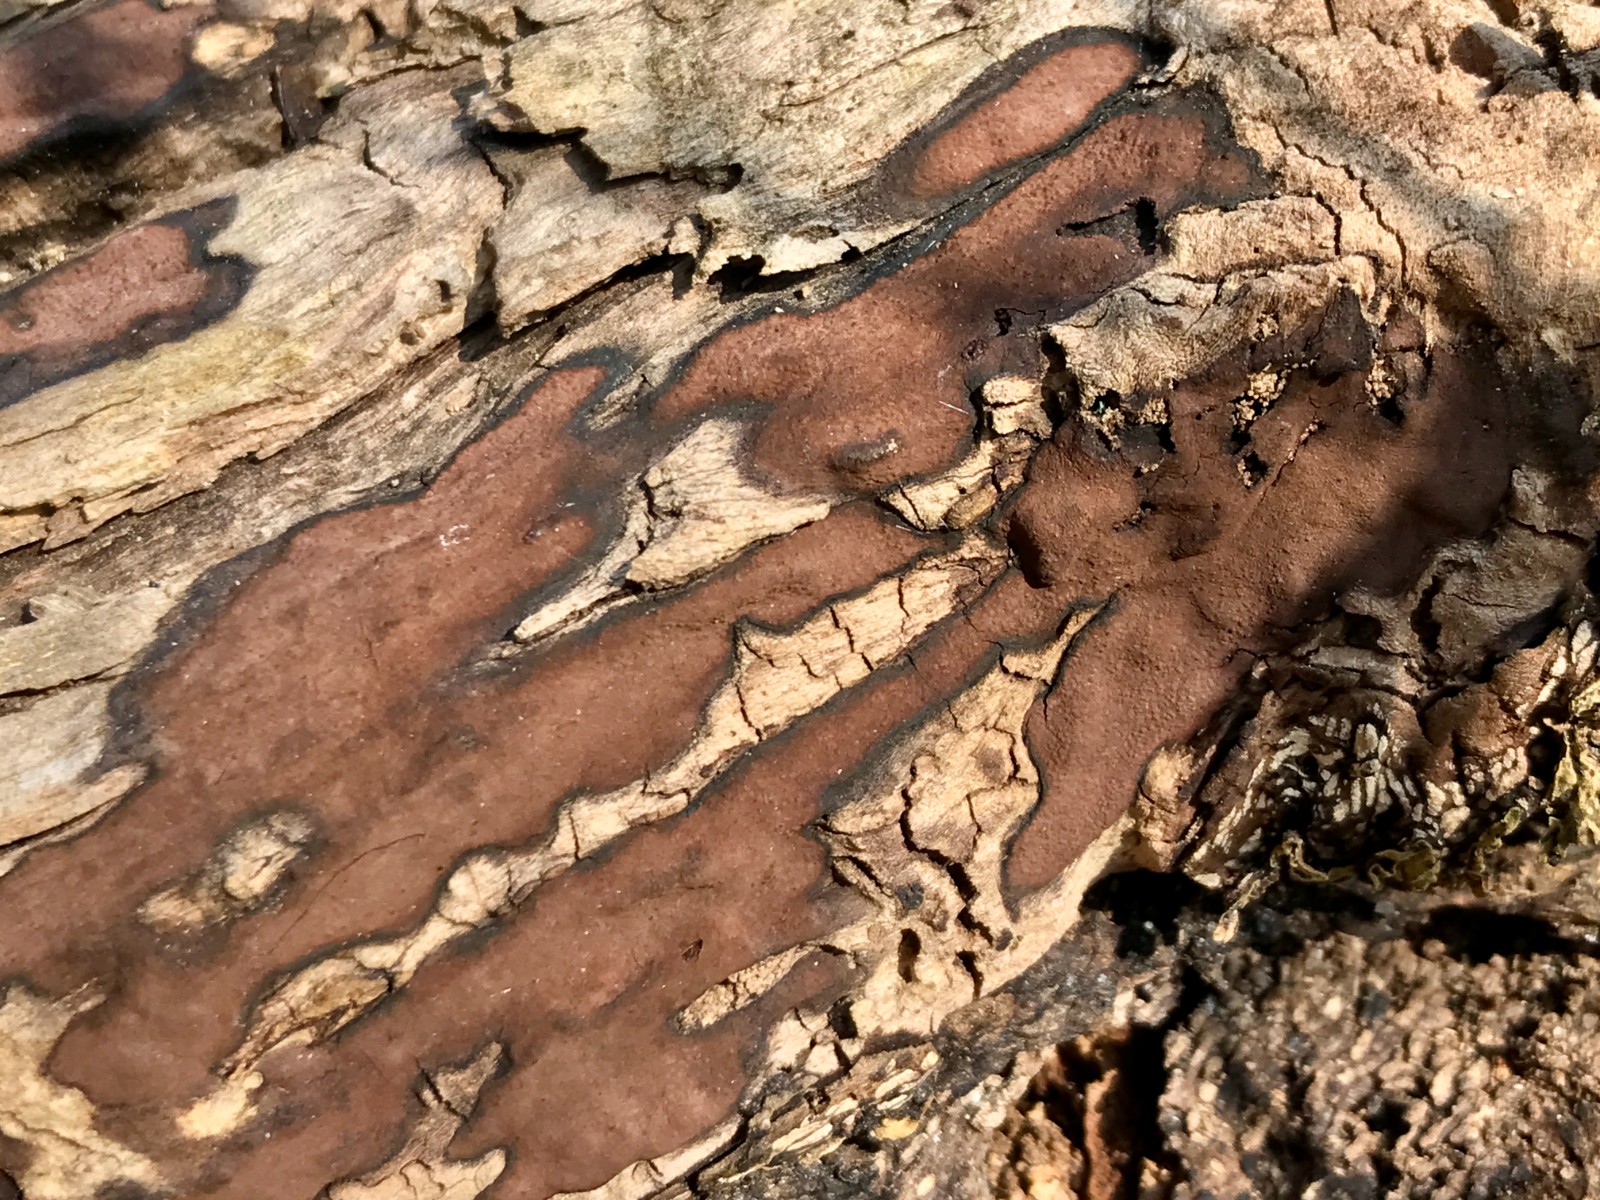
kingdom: Fungi
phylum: Ascomycota
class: Sordariomycetes
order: Xylariales
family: Hypoxylaceae
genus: Hypoxylon
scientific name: Hypoxylon petriniae
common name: nedsænket kulbær
